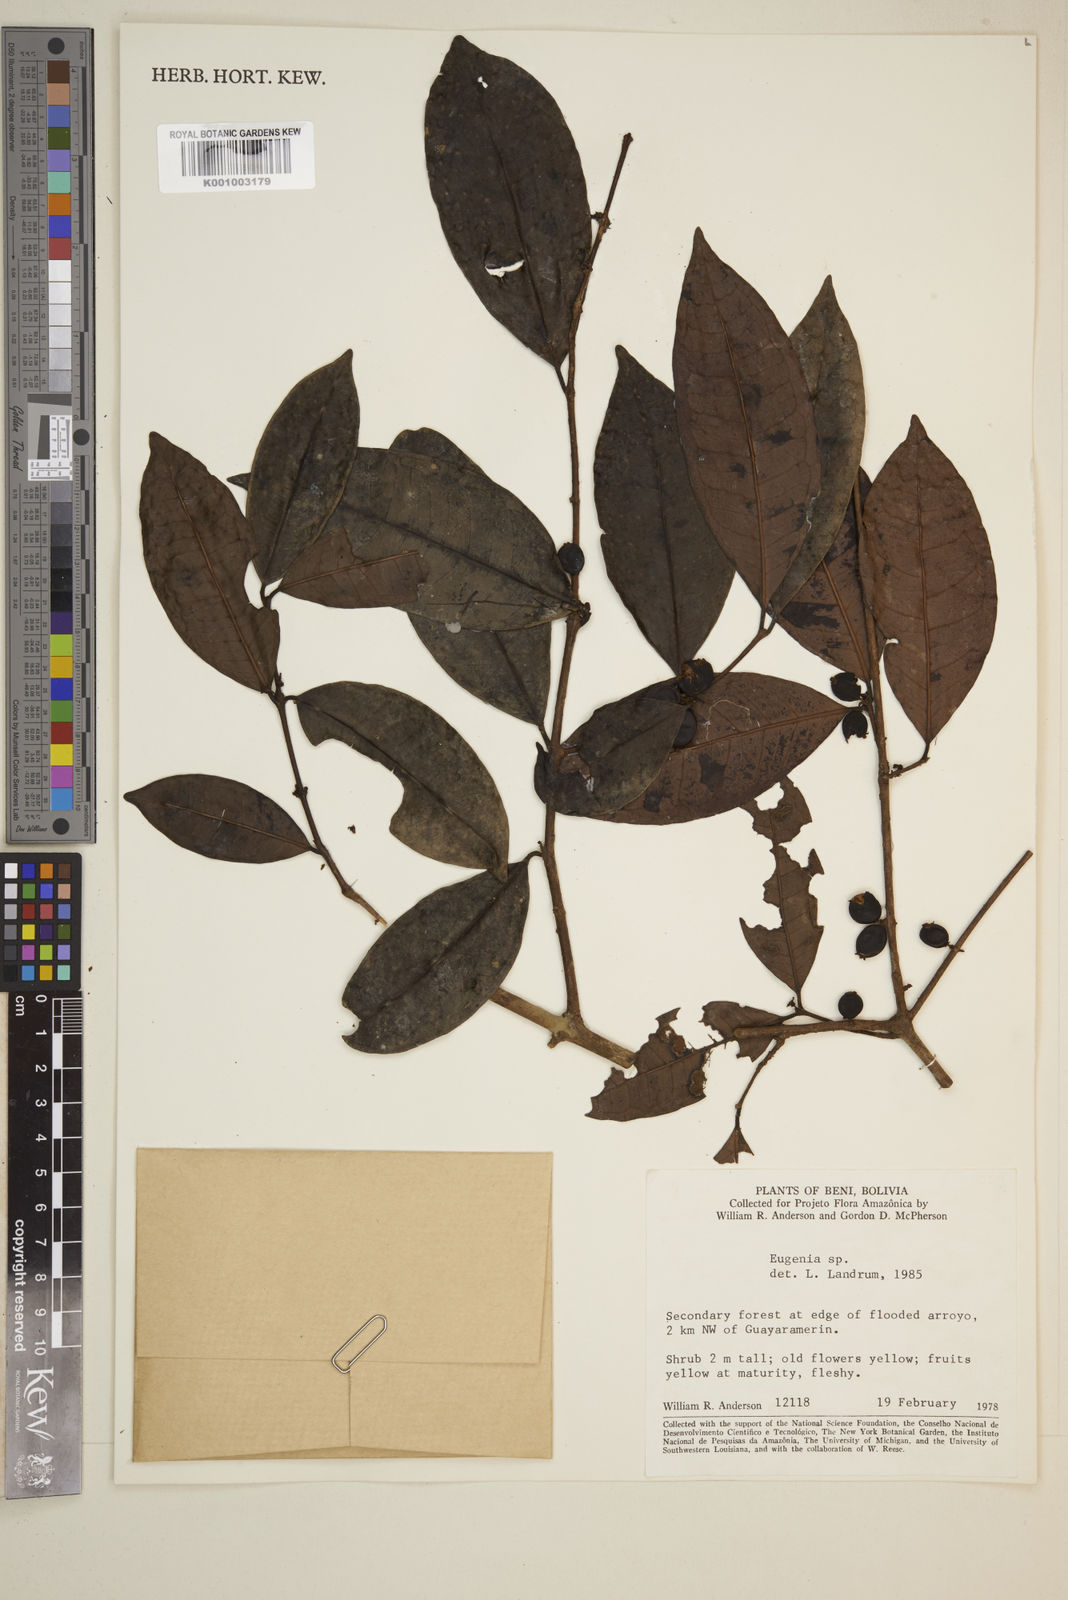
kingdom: Plantae
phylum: Tracheophyta
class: Magnoliopsida
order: Myrtales
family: Myrtaceae
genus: Eugenia
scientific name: Eugenia
